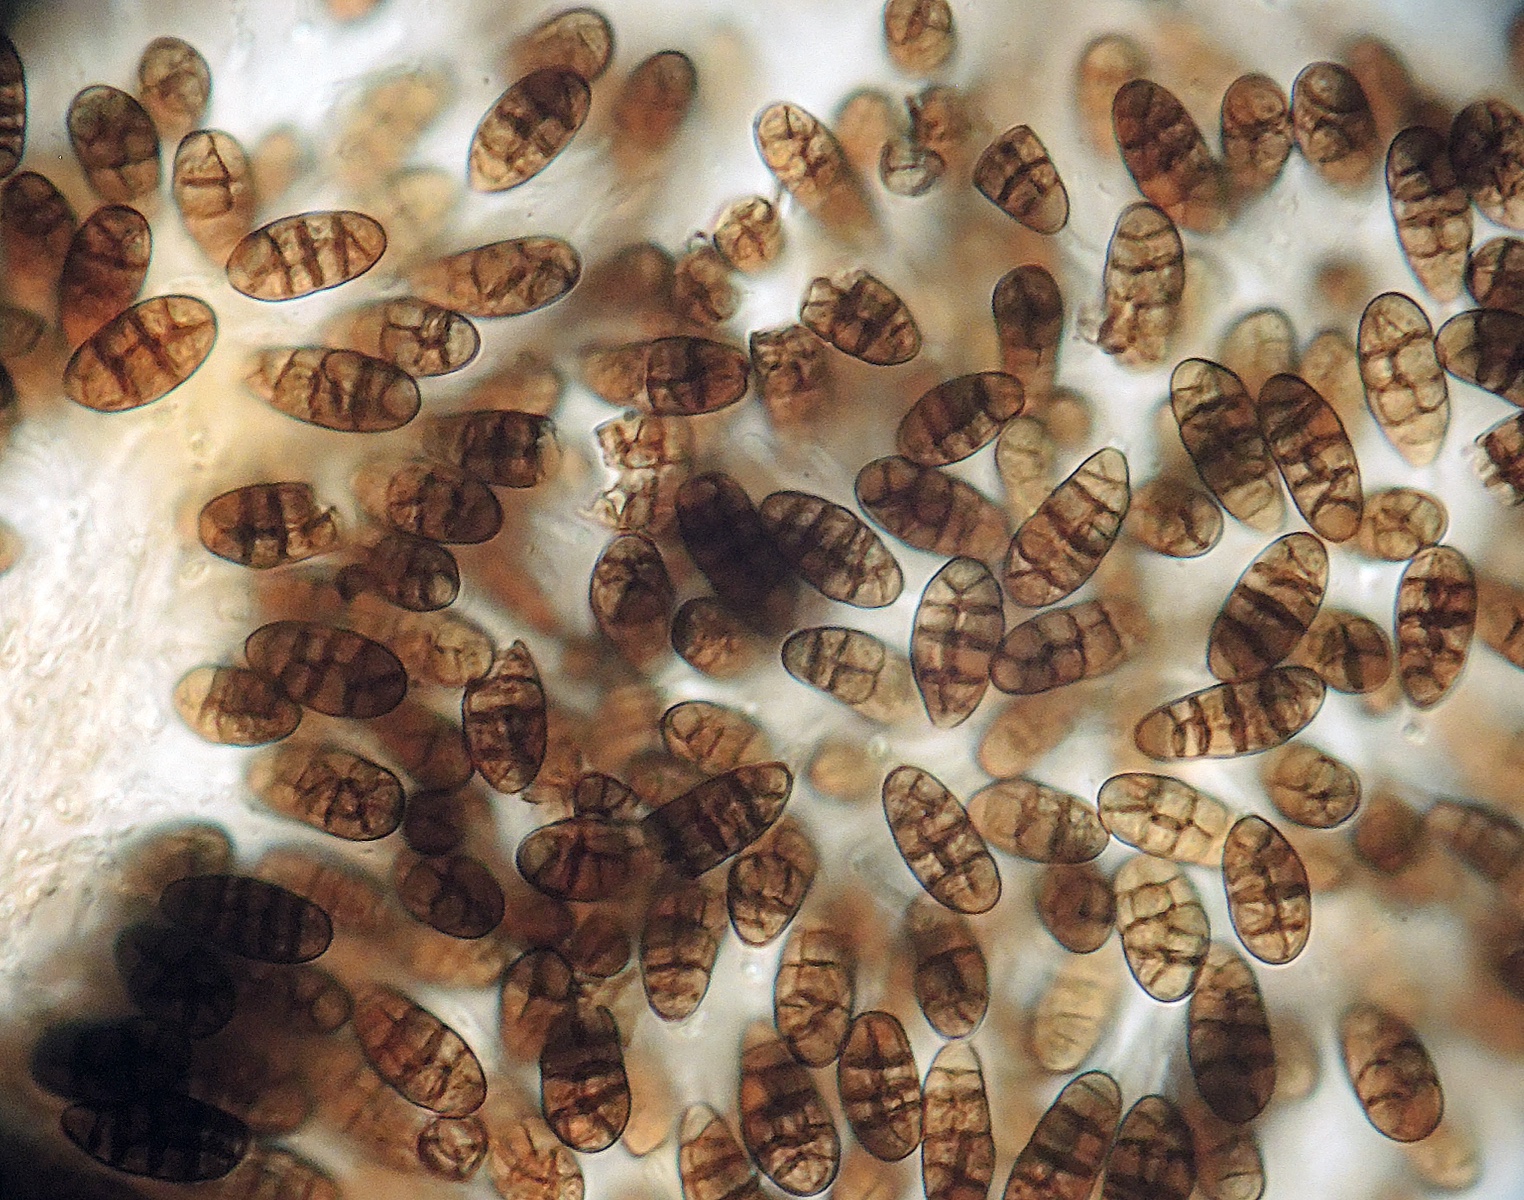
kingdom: Fungi
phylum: Ascomycota
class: Dothideomycetes
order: Pleosporales
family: Camarosporiaceae
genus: Camarosporium
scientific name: Camarosporium crataegi
